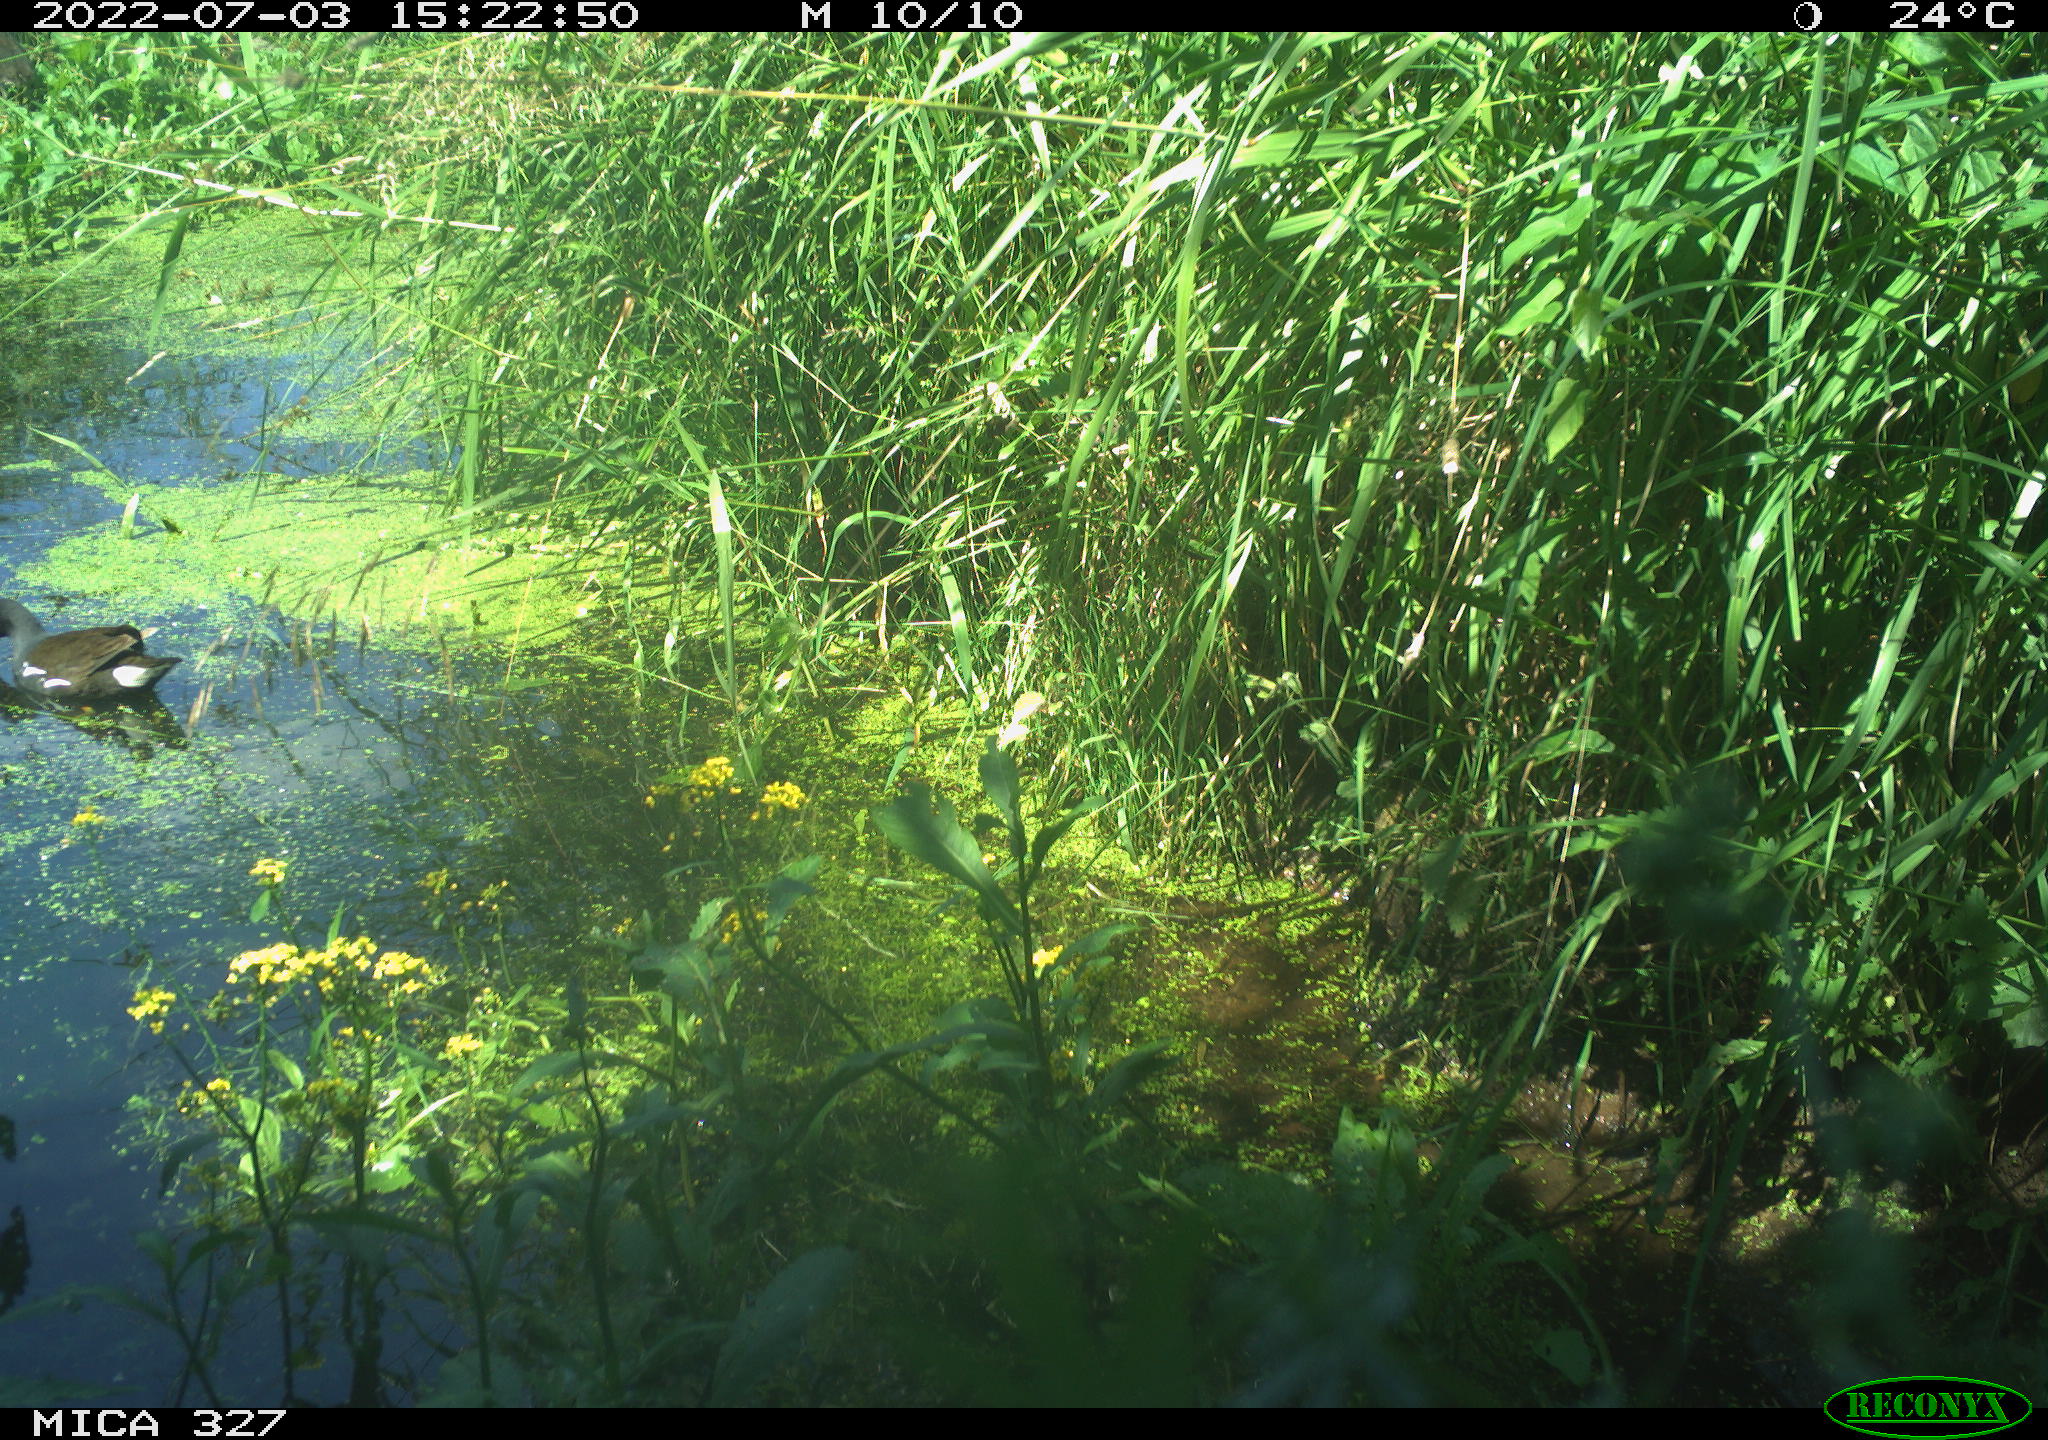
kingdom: Animalia
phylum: Chordata
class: Aves
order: Gruiformes
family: Rallidae
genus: Gallinula
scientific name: Gallinula chloropus
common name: Common moorhen
